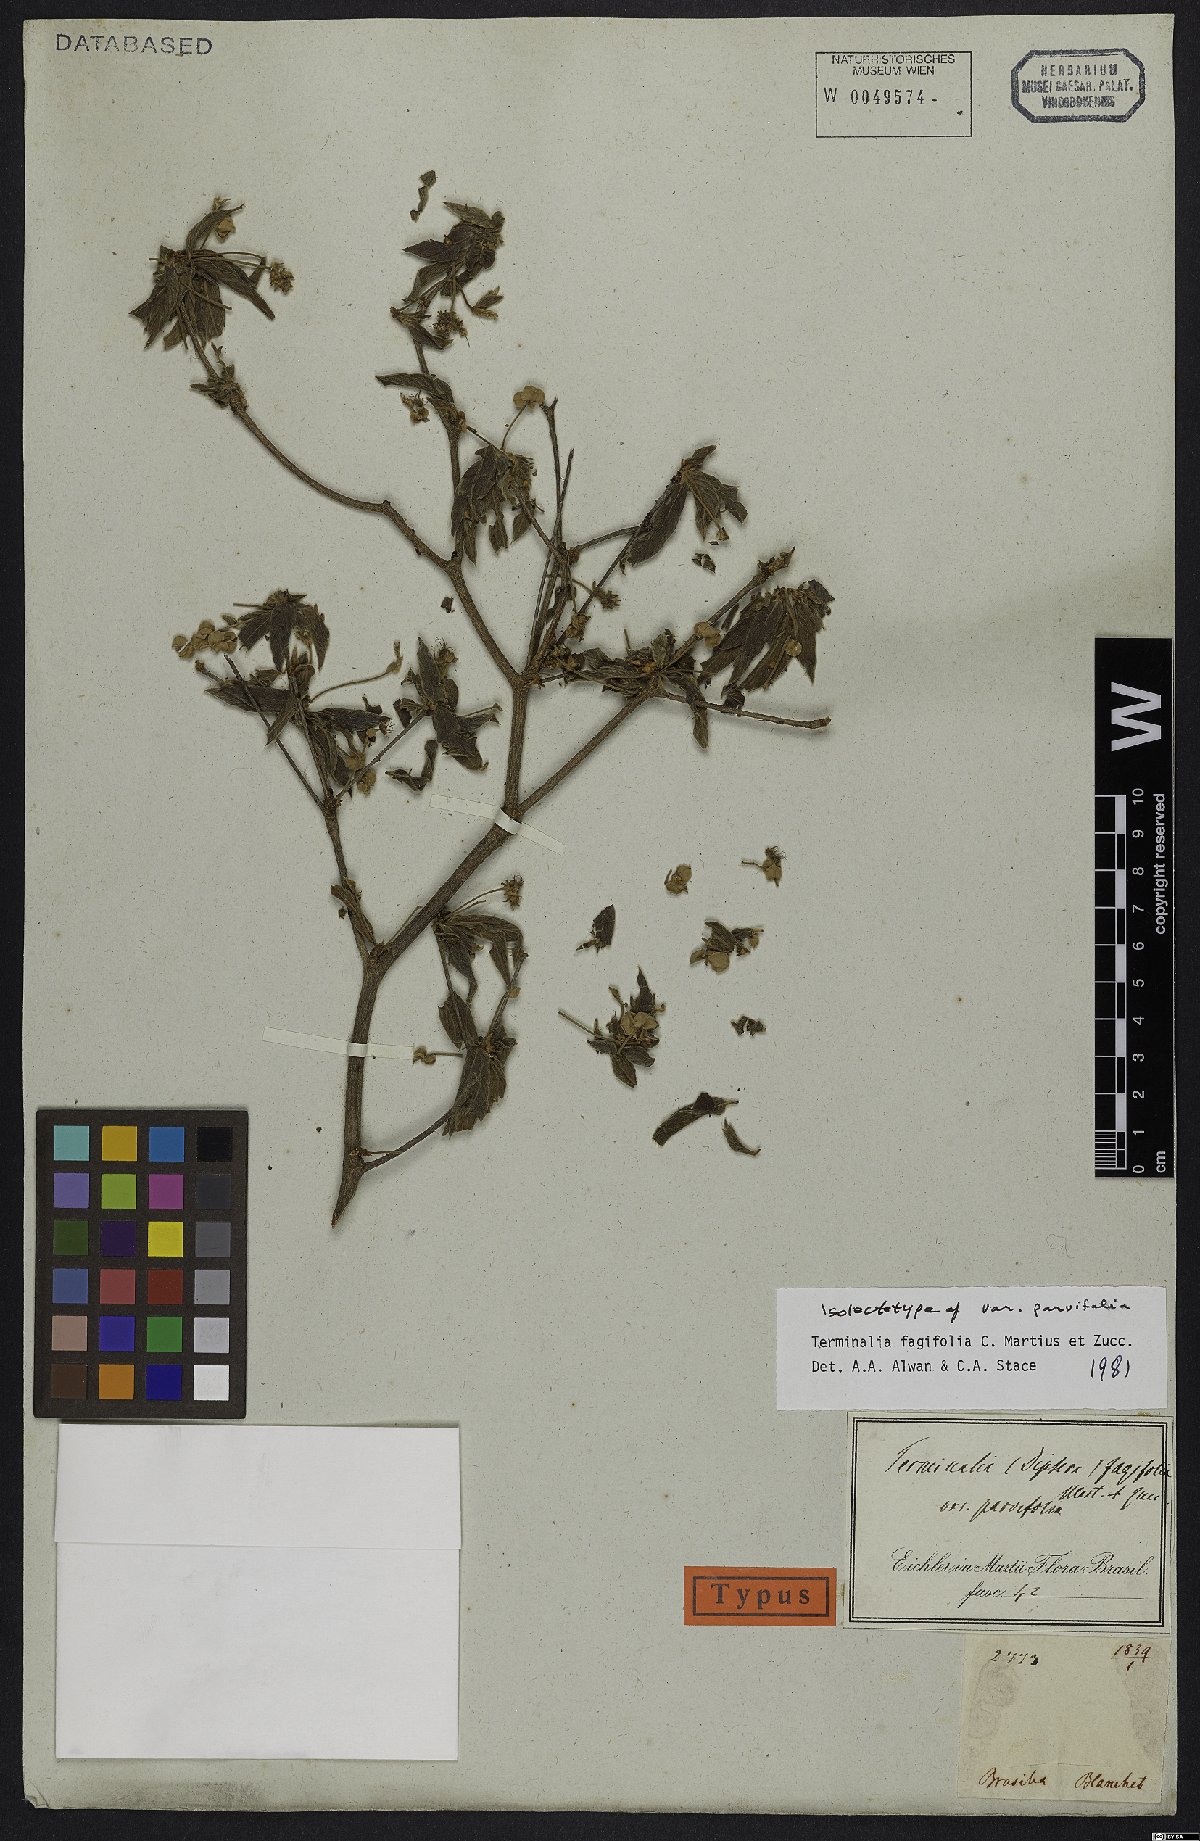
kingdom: Plantae
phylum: Tracheophyta
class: Magnoliopsida
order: Myrtales
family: Combretaceae
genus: Terminalia
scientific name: Terminalia fagifolia
